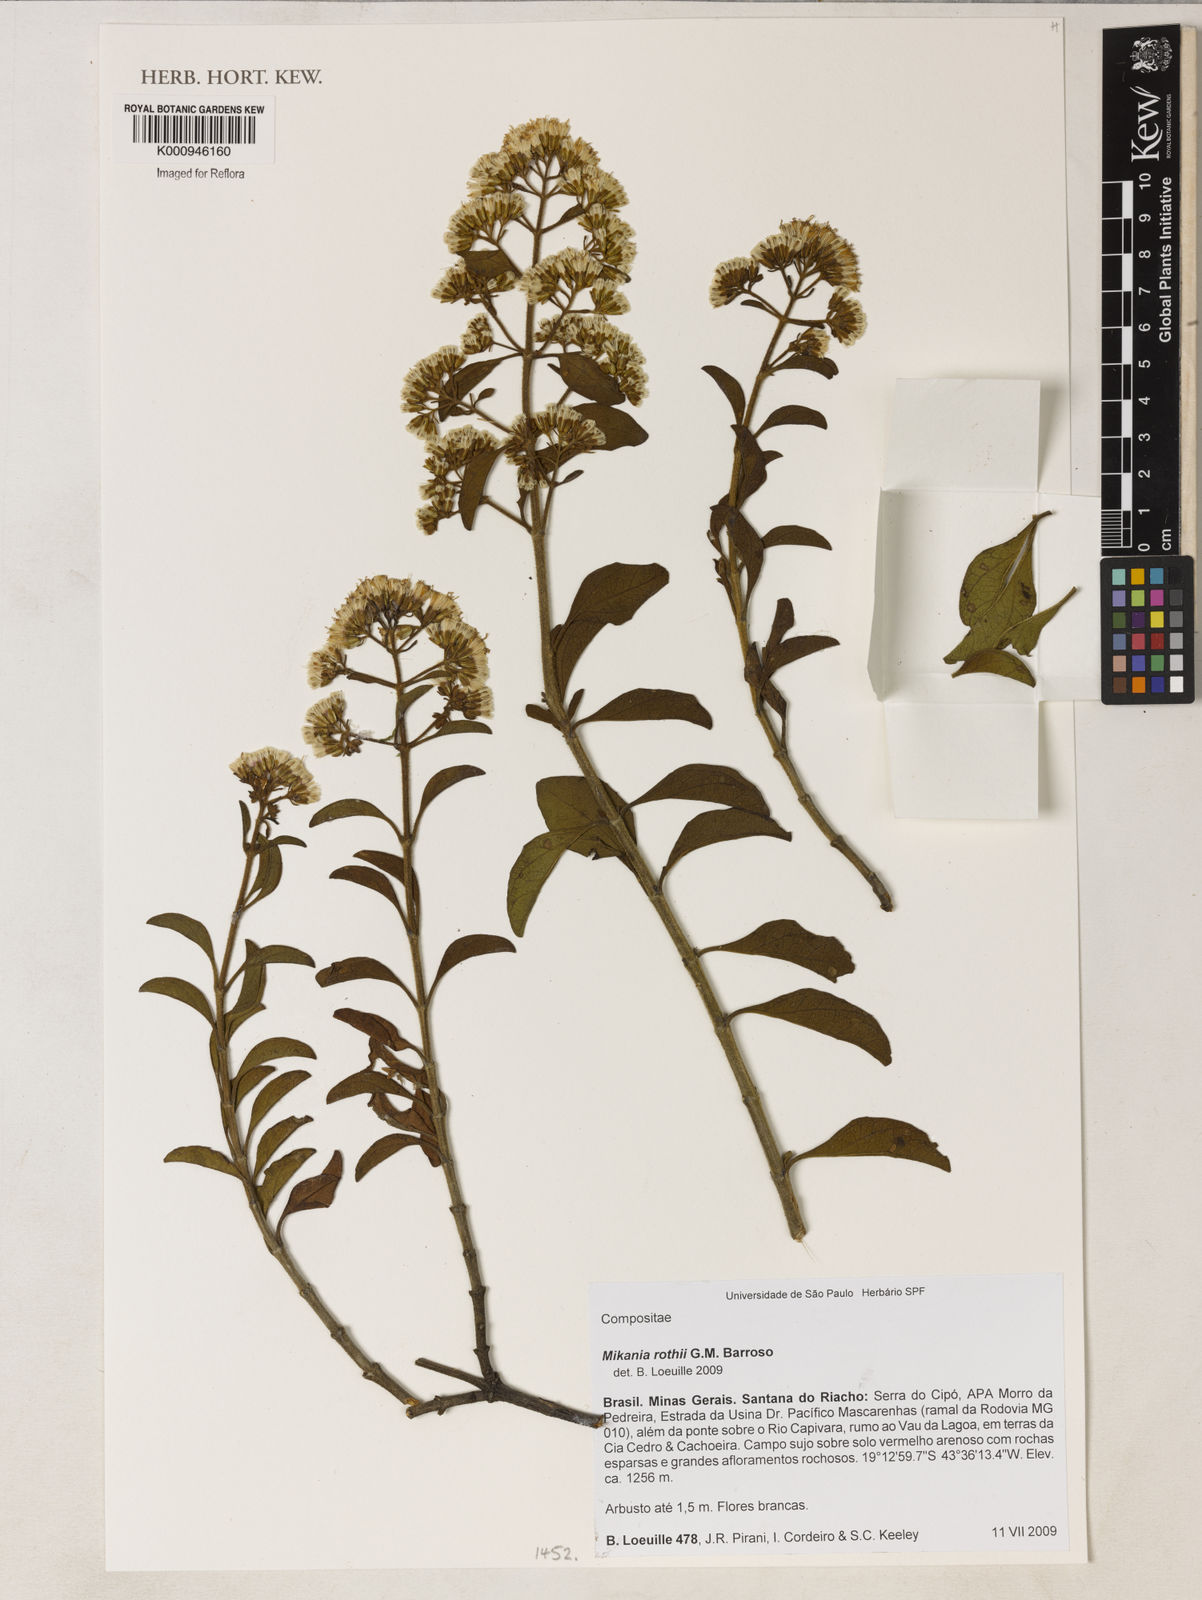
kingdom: Plantae
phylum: Tracheophyta
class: Magnoliopsida
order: Asterales
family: Asteraceae
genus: Mikania
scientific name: Mikania rothii
